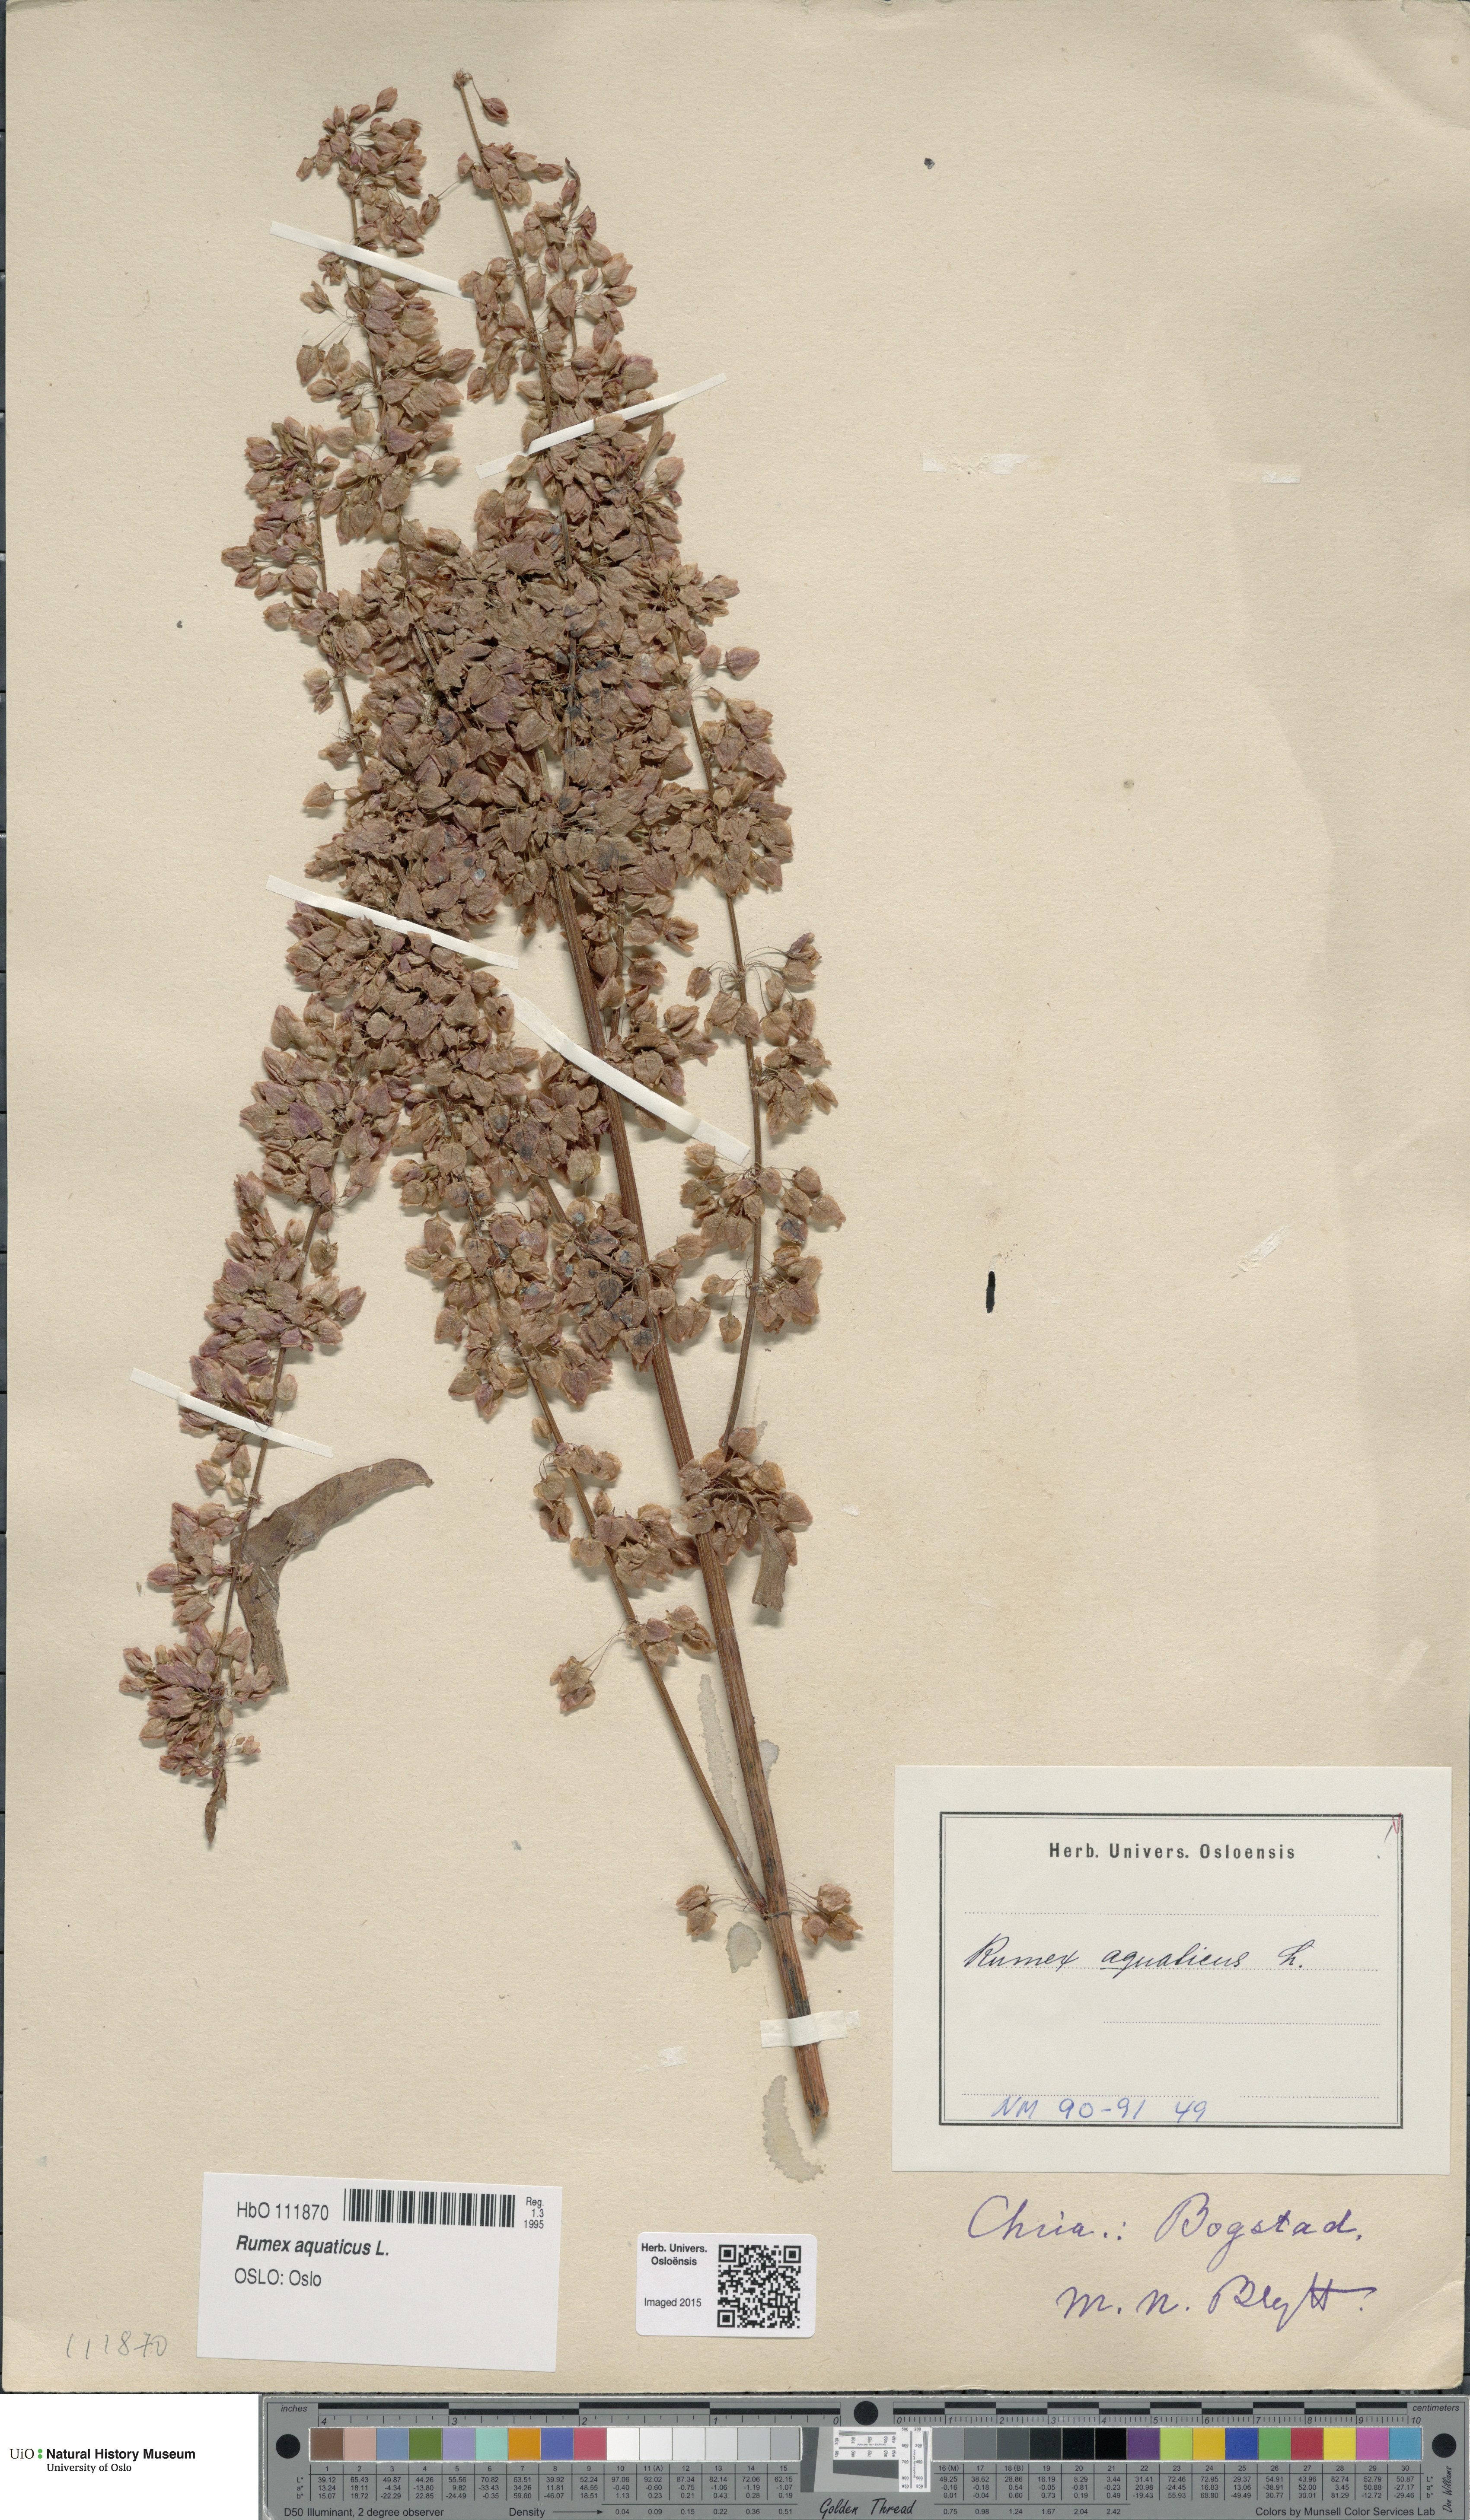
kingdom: Plantae
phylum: Tracheophyta
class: Magnoliopsida
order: Caryophyllales
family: Polygonaceae
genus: Rumex
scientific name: Rumex aquaticus
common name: Scottish dock
